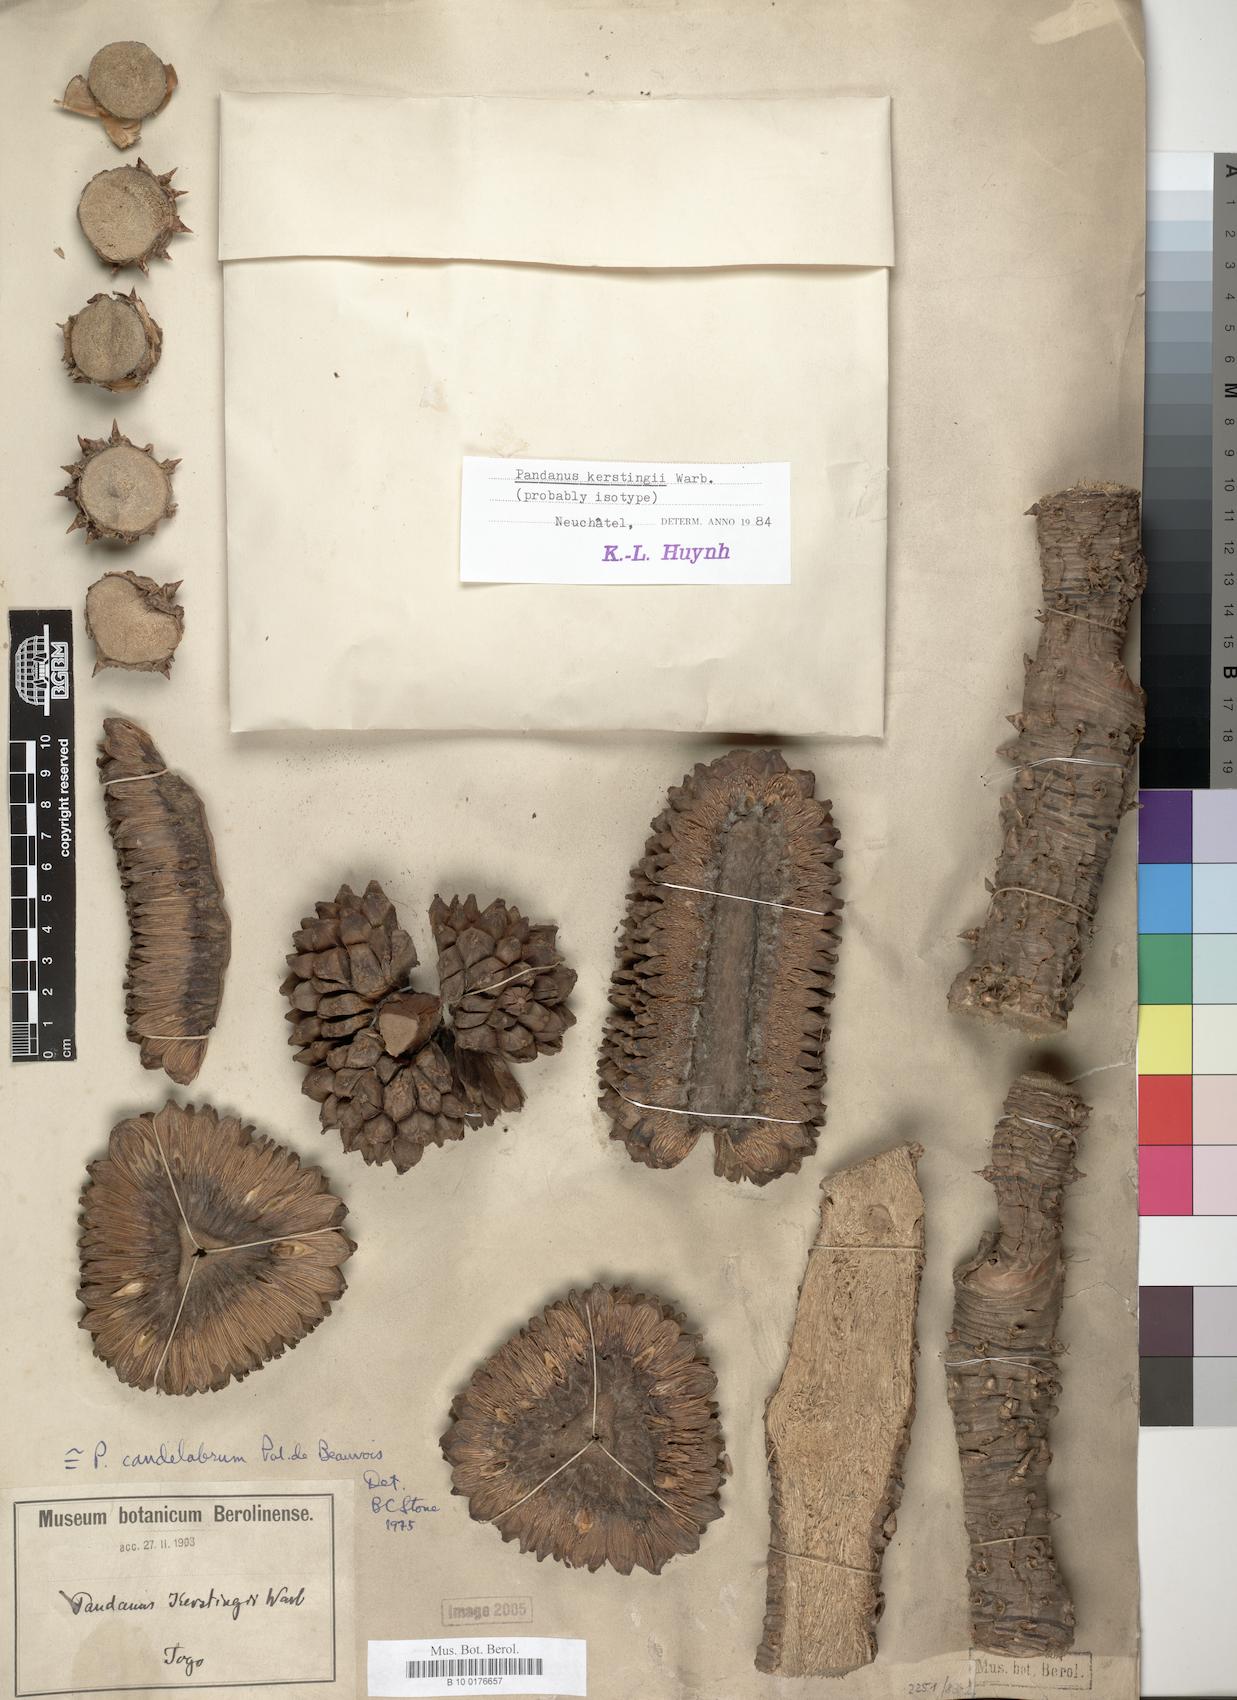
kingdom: Plantae
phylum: Tracheophyta
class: Liliopsida
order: Pandanales
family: Pandanaceae
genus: Pandanus
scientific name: Pandanus candelabrum
